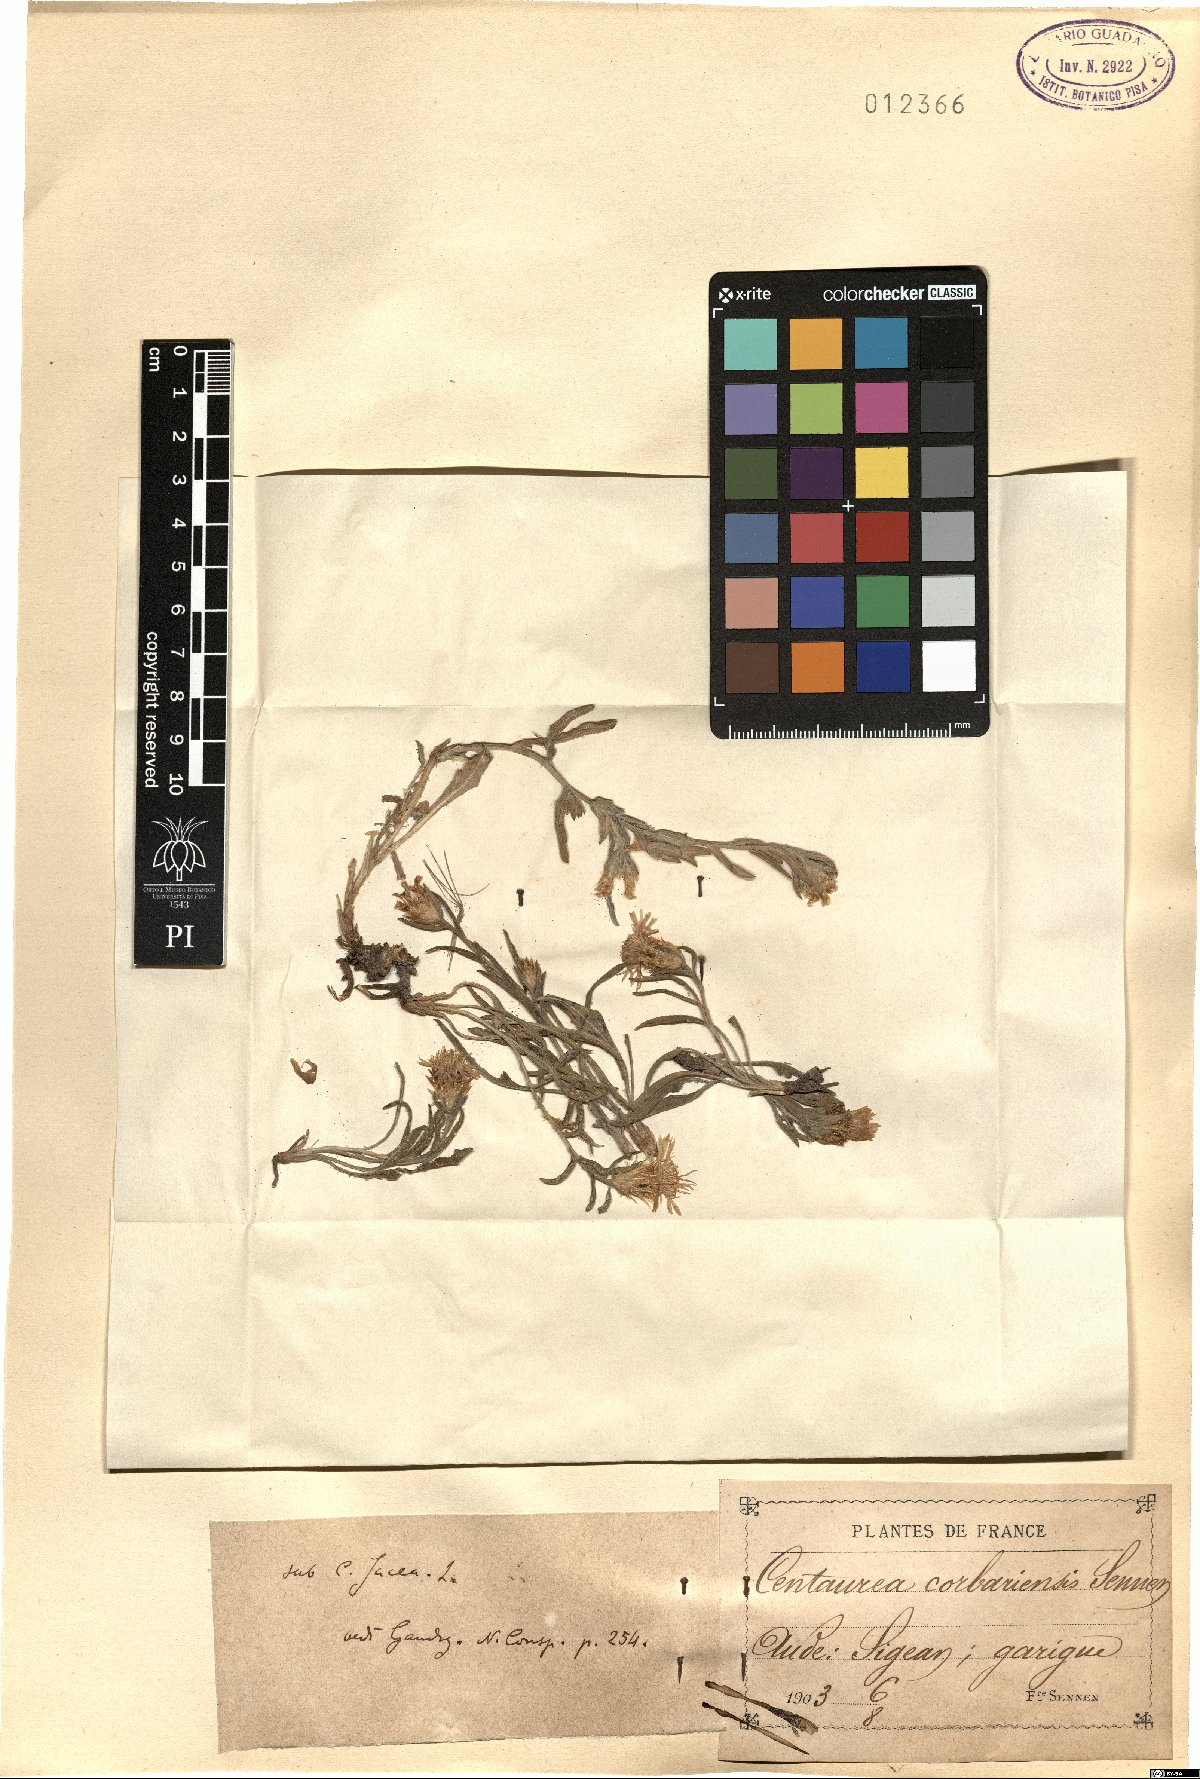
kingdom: Plantae
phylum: Tracheophyta
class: Magnoliopsida
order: Asterales
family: Asteraceae
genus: Centaurea
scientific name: Centaurea corbariensis
